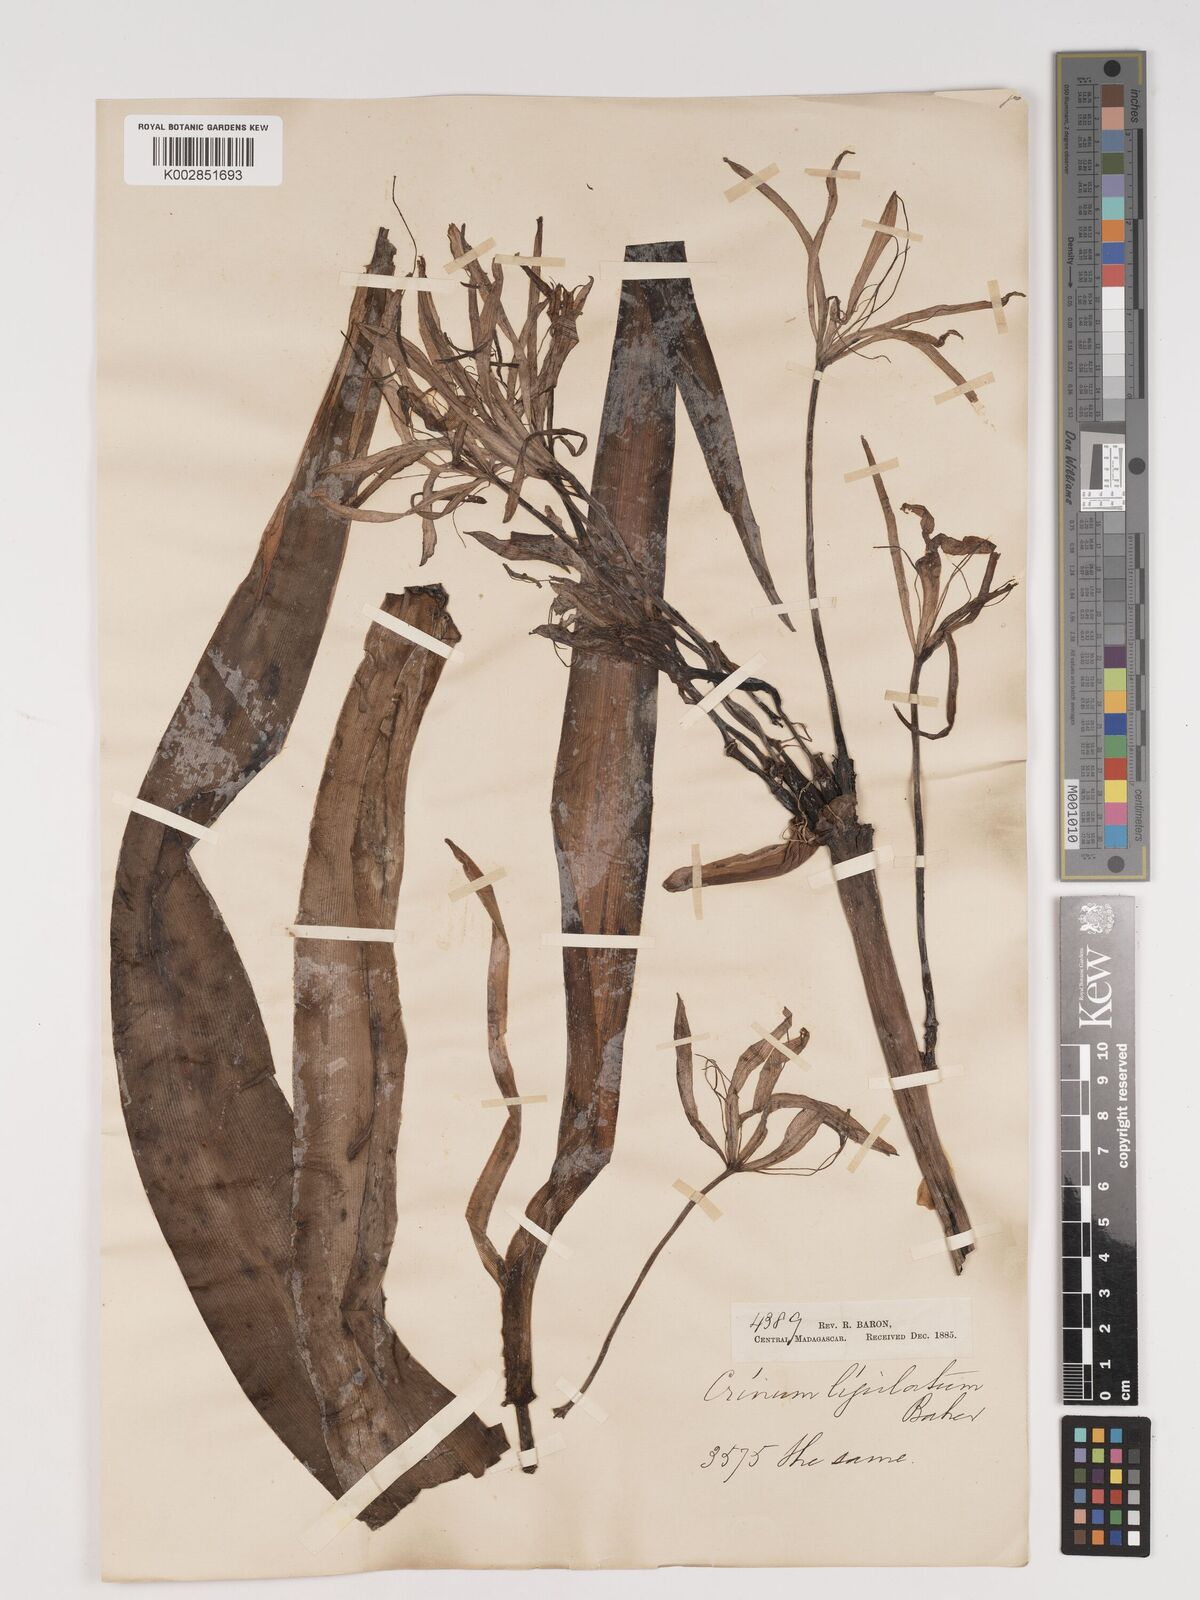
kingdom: Plantae
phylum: Tracheophyta
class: Liliopsida
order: Asparagales
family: Amaryllidaceae
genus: Crinum
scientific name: Crinum amabile
